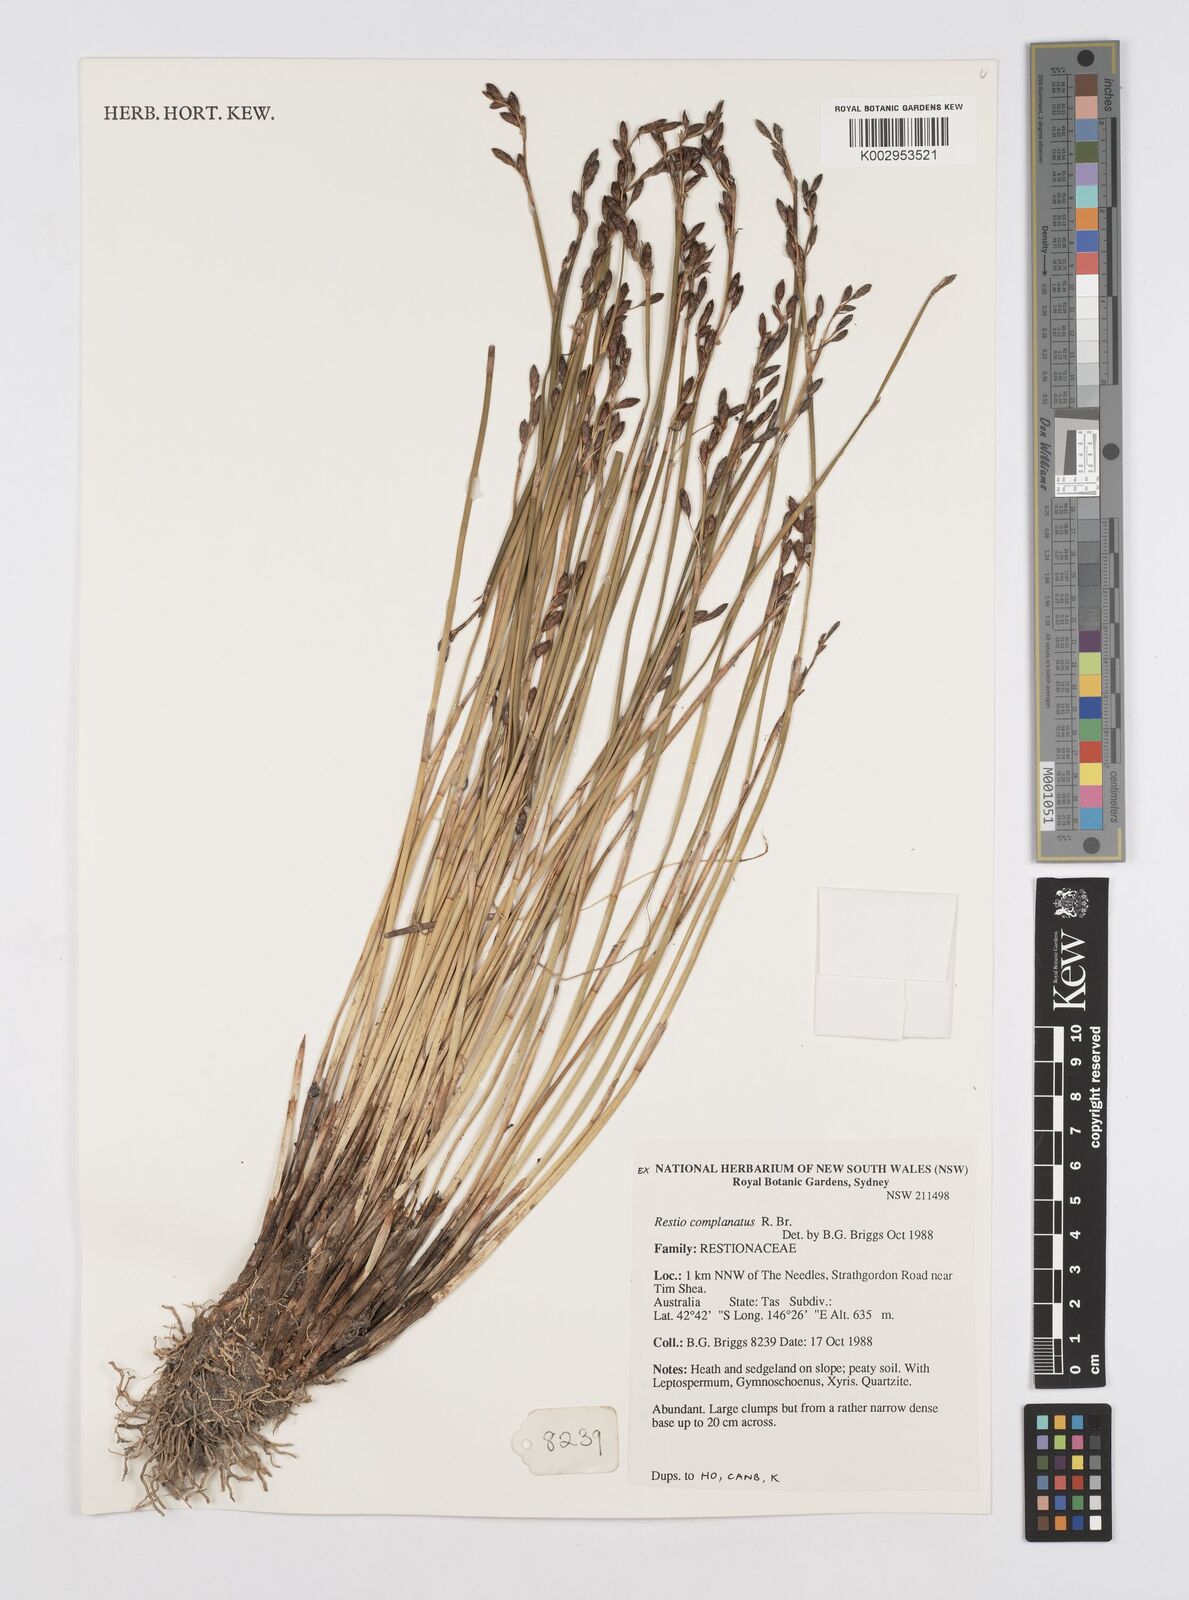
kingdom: Plantae
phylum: Tracheophyta
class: Liliopsida
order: Poales
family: Restionaceae
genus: Eurychorda
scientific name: Eurychorda complanata
